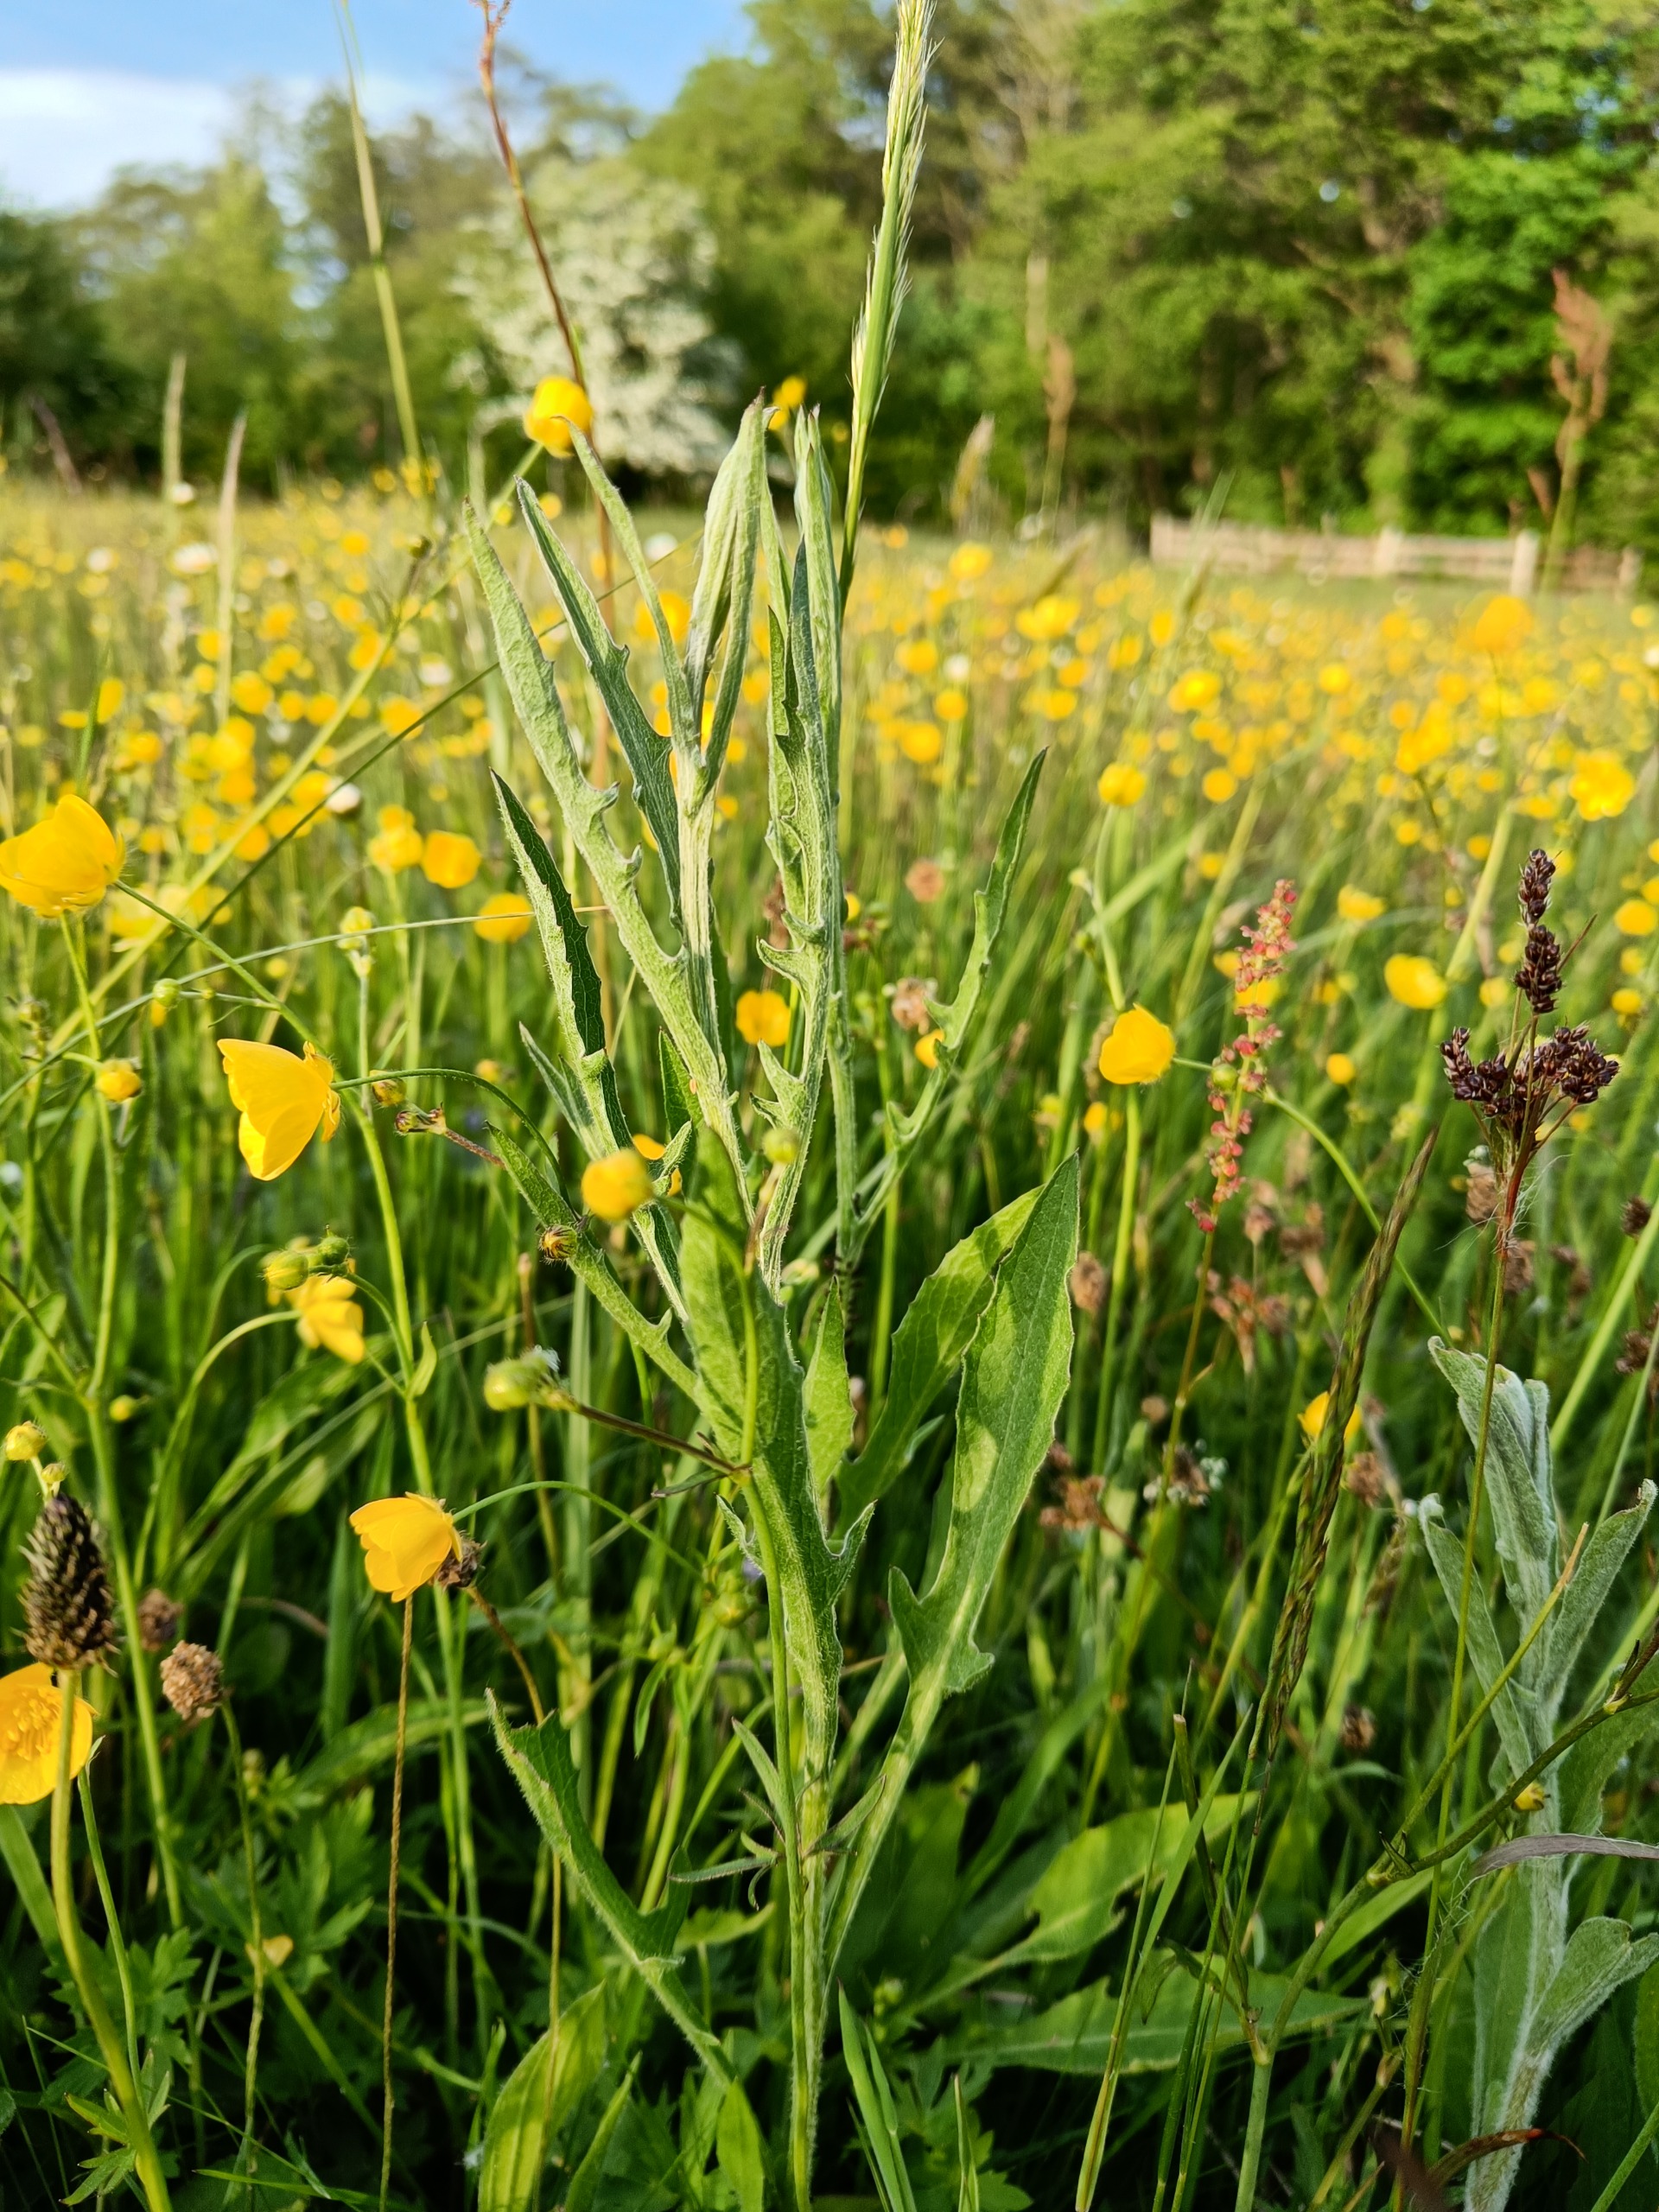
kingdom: Plantae
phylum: Tracheophyta
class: Magnoliopsida
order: Asterales
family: Asteraceae
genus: Centaurea
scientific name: Centaurea jacea
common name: Almindelig knopurt
